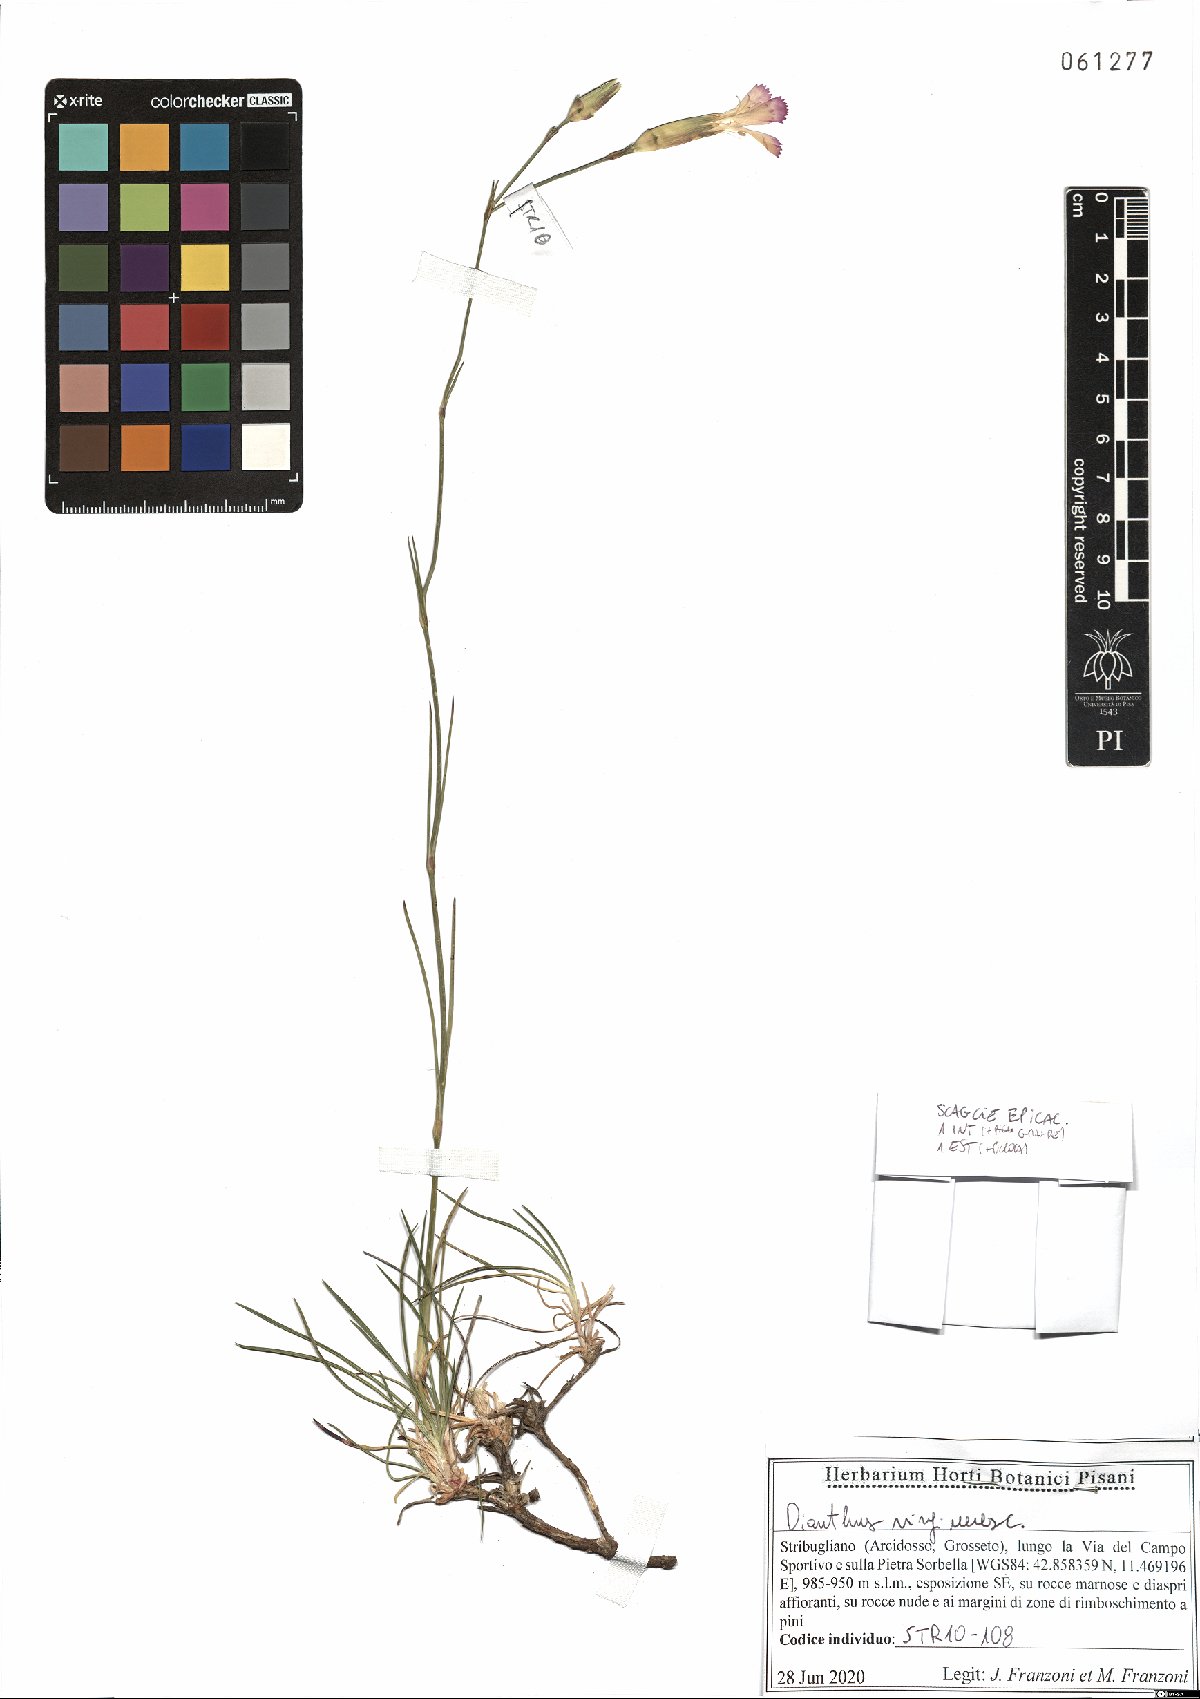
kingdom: Plantae
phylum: Tracheophyta
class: Magnoliopsida
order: Caryophyllales
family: Caryophyllaceae
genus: Dianthus
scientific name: Dianthus virgineus
